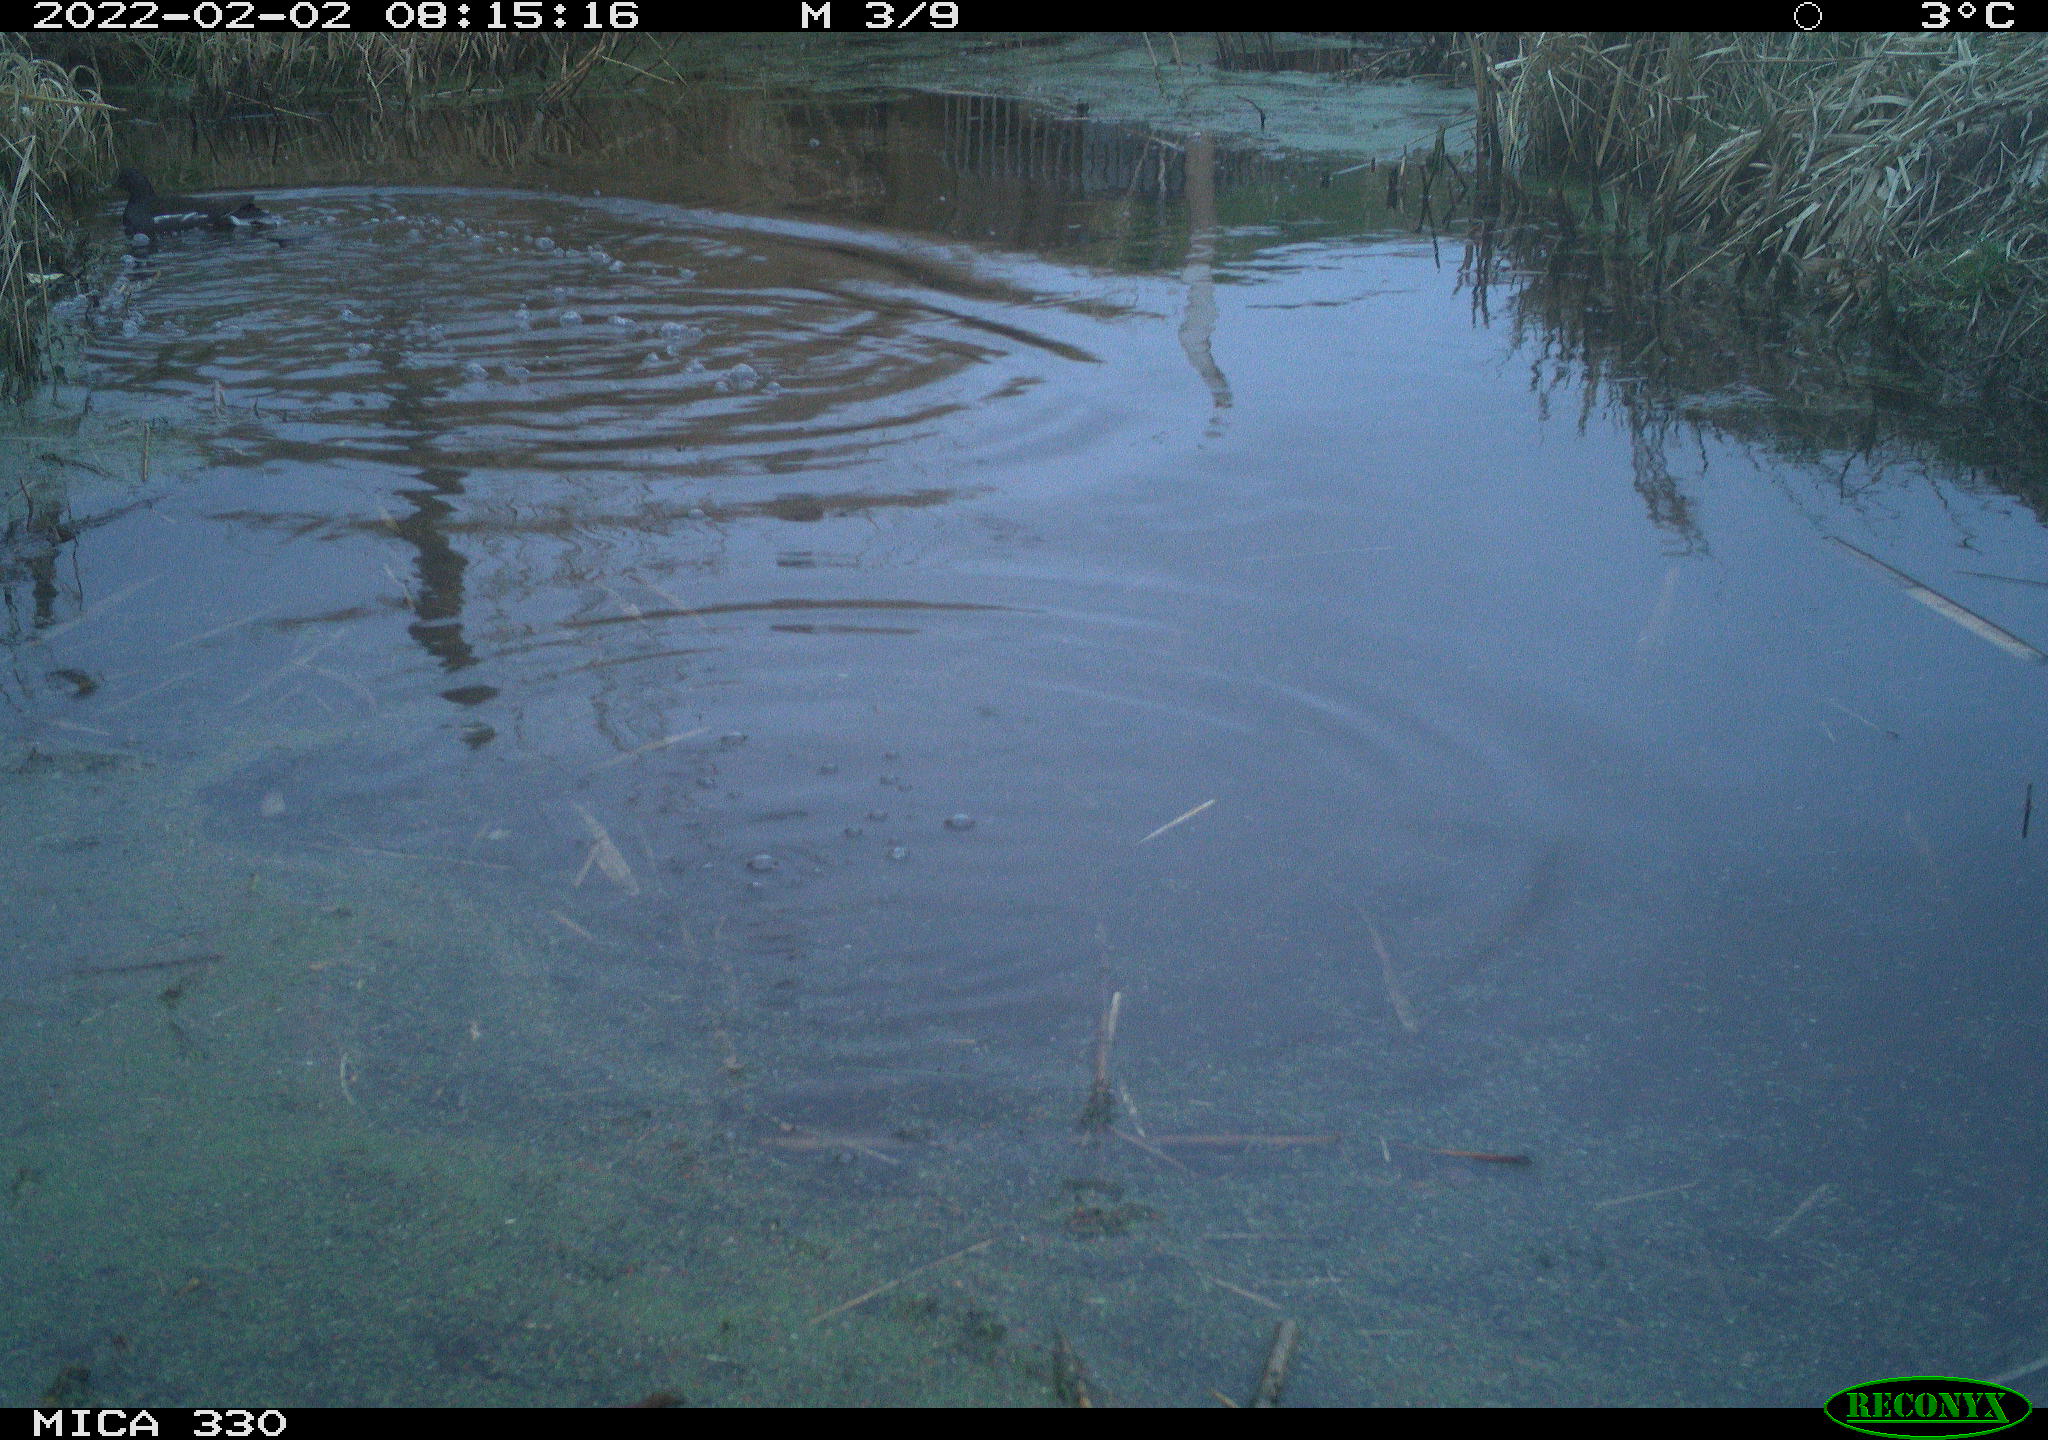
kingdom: Animalia
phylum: Chordata
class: Aves
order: Gruiformes
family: Rallidae
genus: Gallinula
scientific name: Gallinula chloropus
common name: Common moorhen
